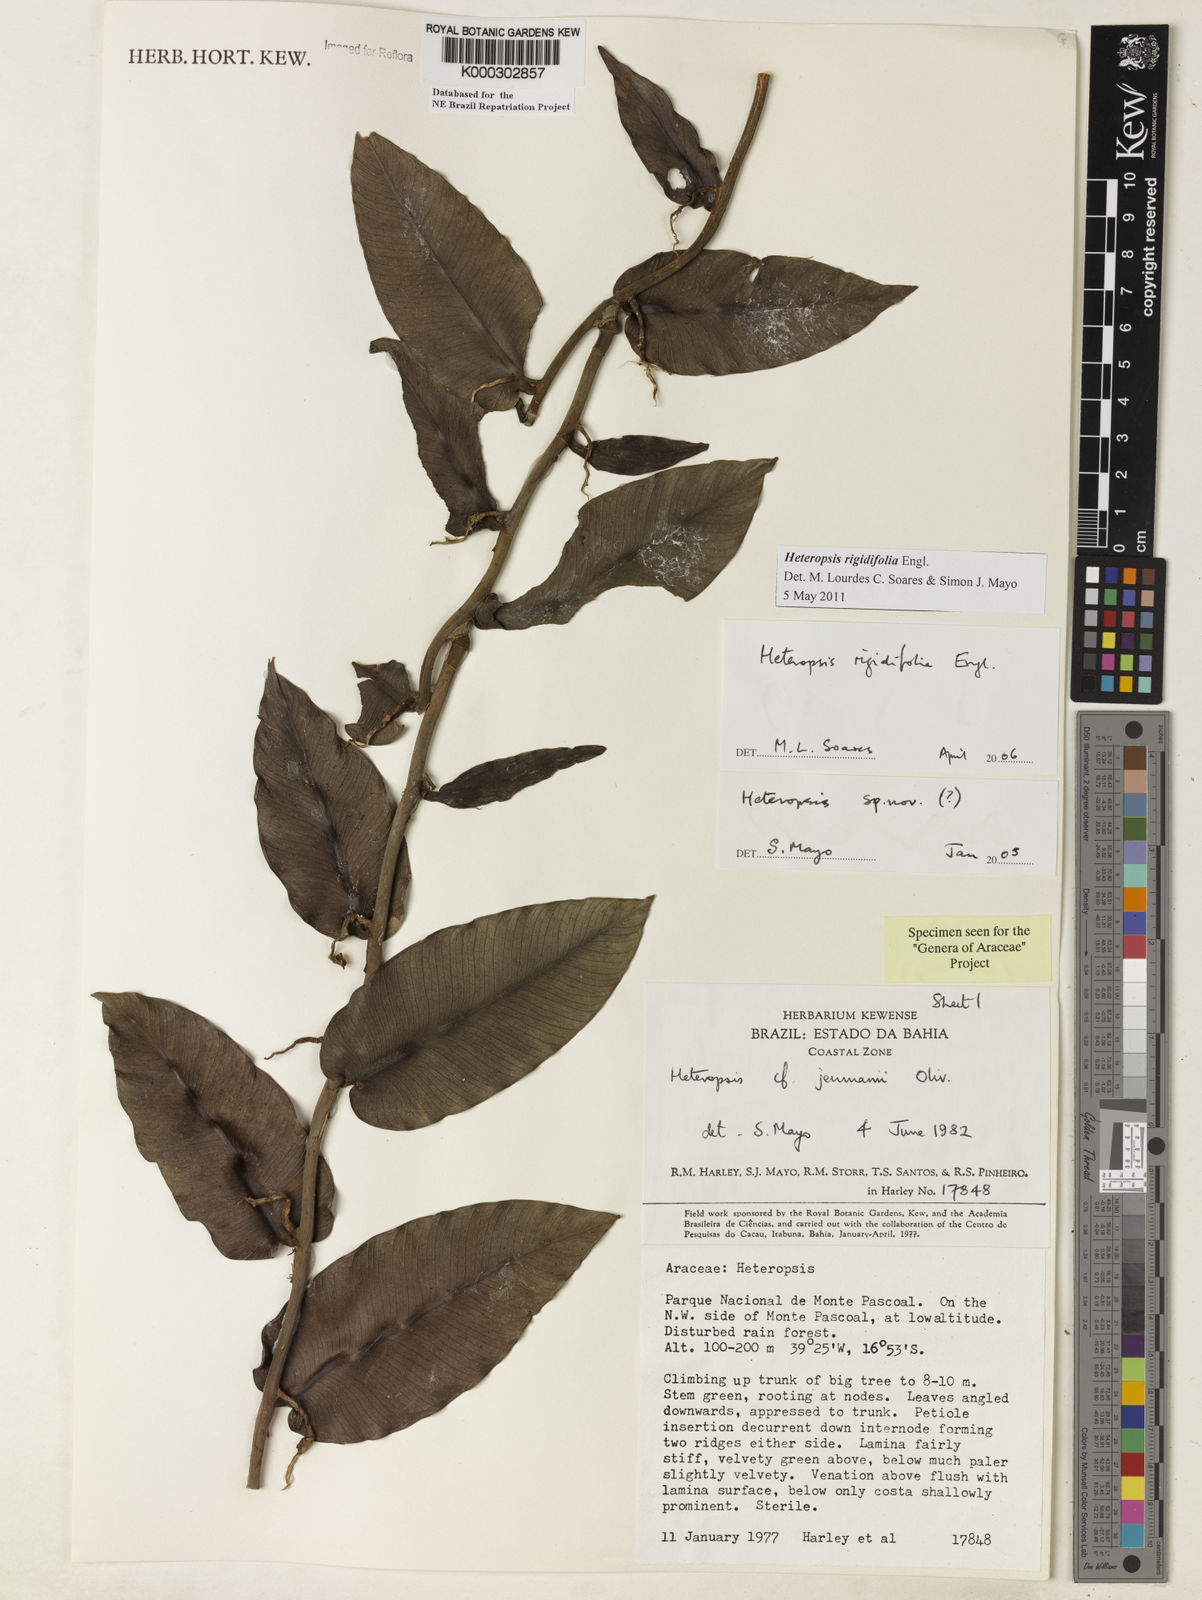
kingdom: Plantae
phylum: Tracheophyta
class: Liliopsida
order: Alismatales
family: Araceae
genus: Heteropsis
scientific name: Heteropsis
